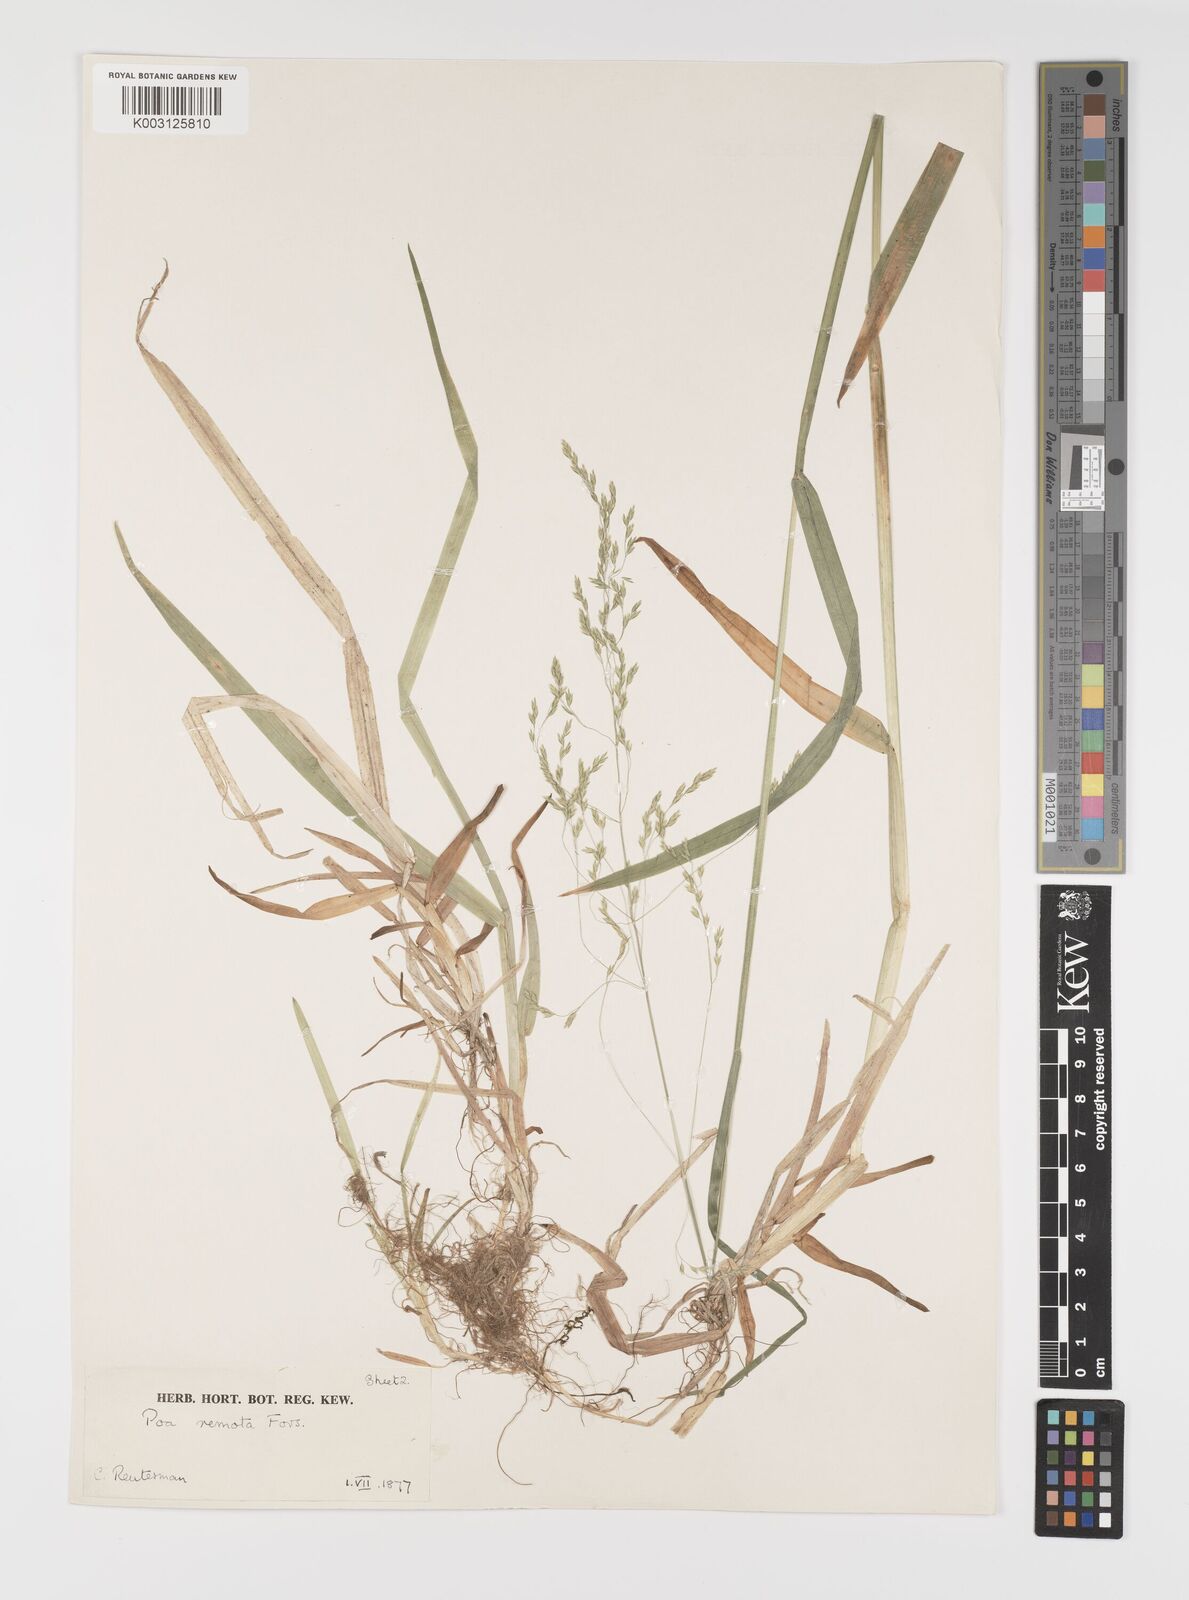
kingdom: Plantae
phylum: Tracheophyta
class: Liliopsida
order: Poales
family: Poaceae
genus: Poa
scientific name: Poa remota
